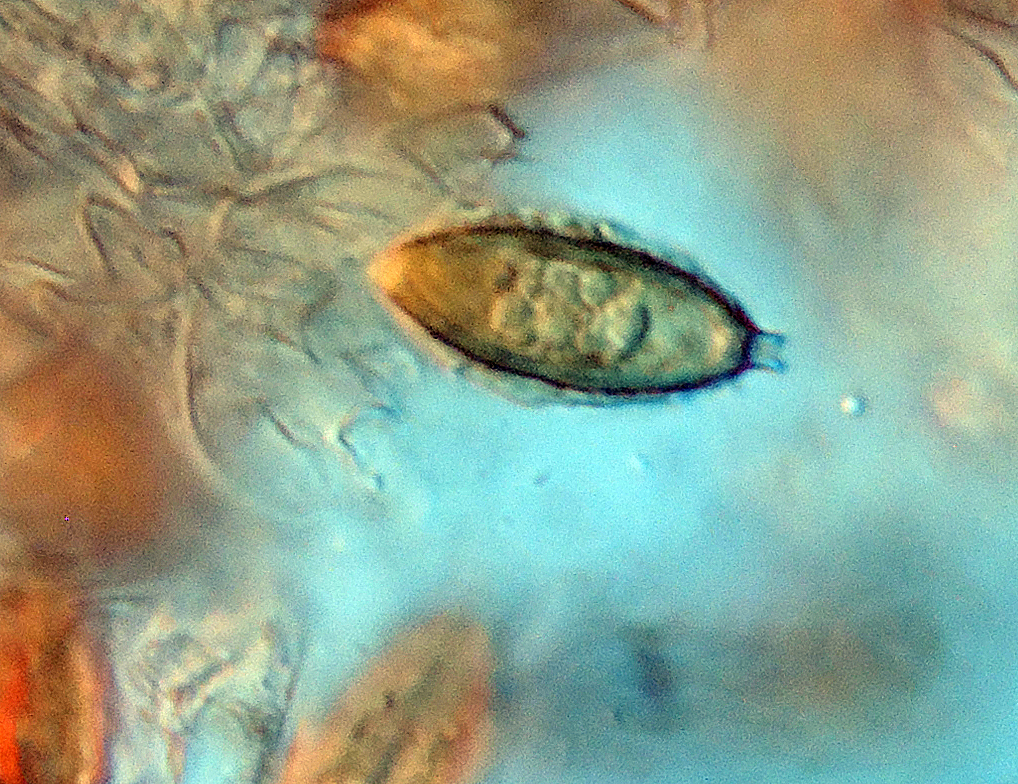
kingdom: Fungi
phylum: Basidiomycota
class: Agaricomycetes
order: Agaricales
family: Hymenogastraceae
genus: Hymenogaster
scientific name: Hymenogaster
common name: knoldtrøffel
